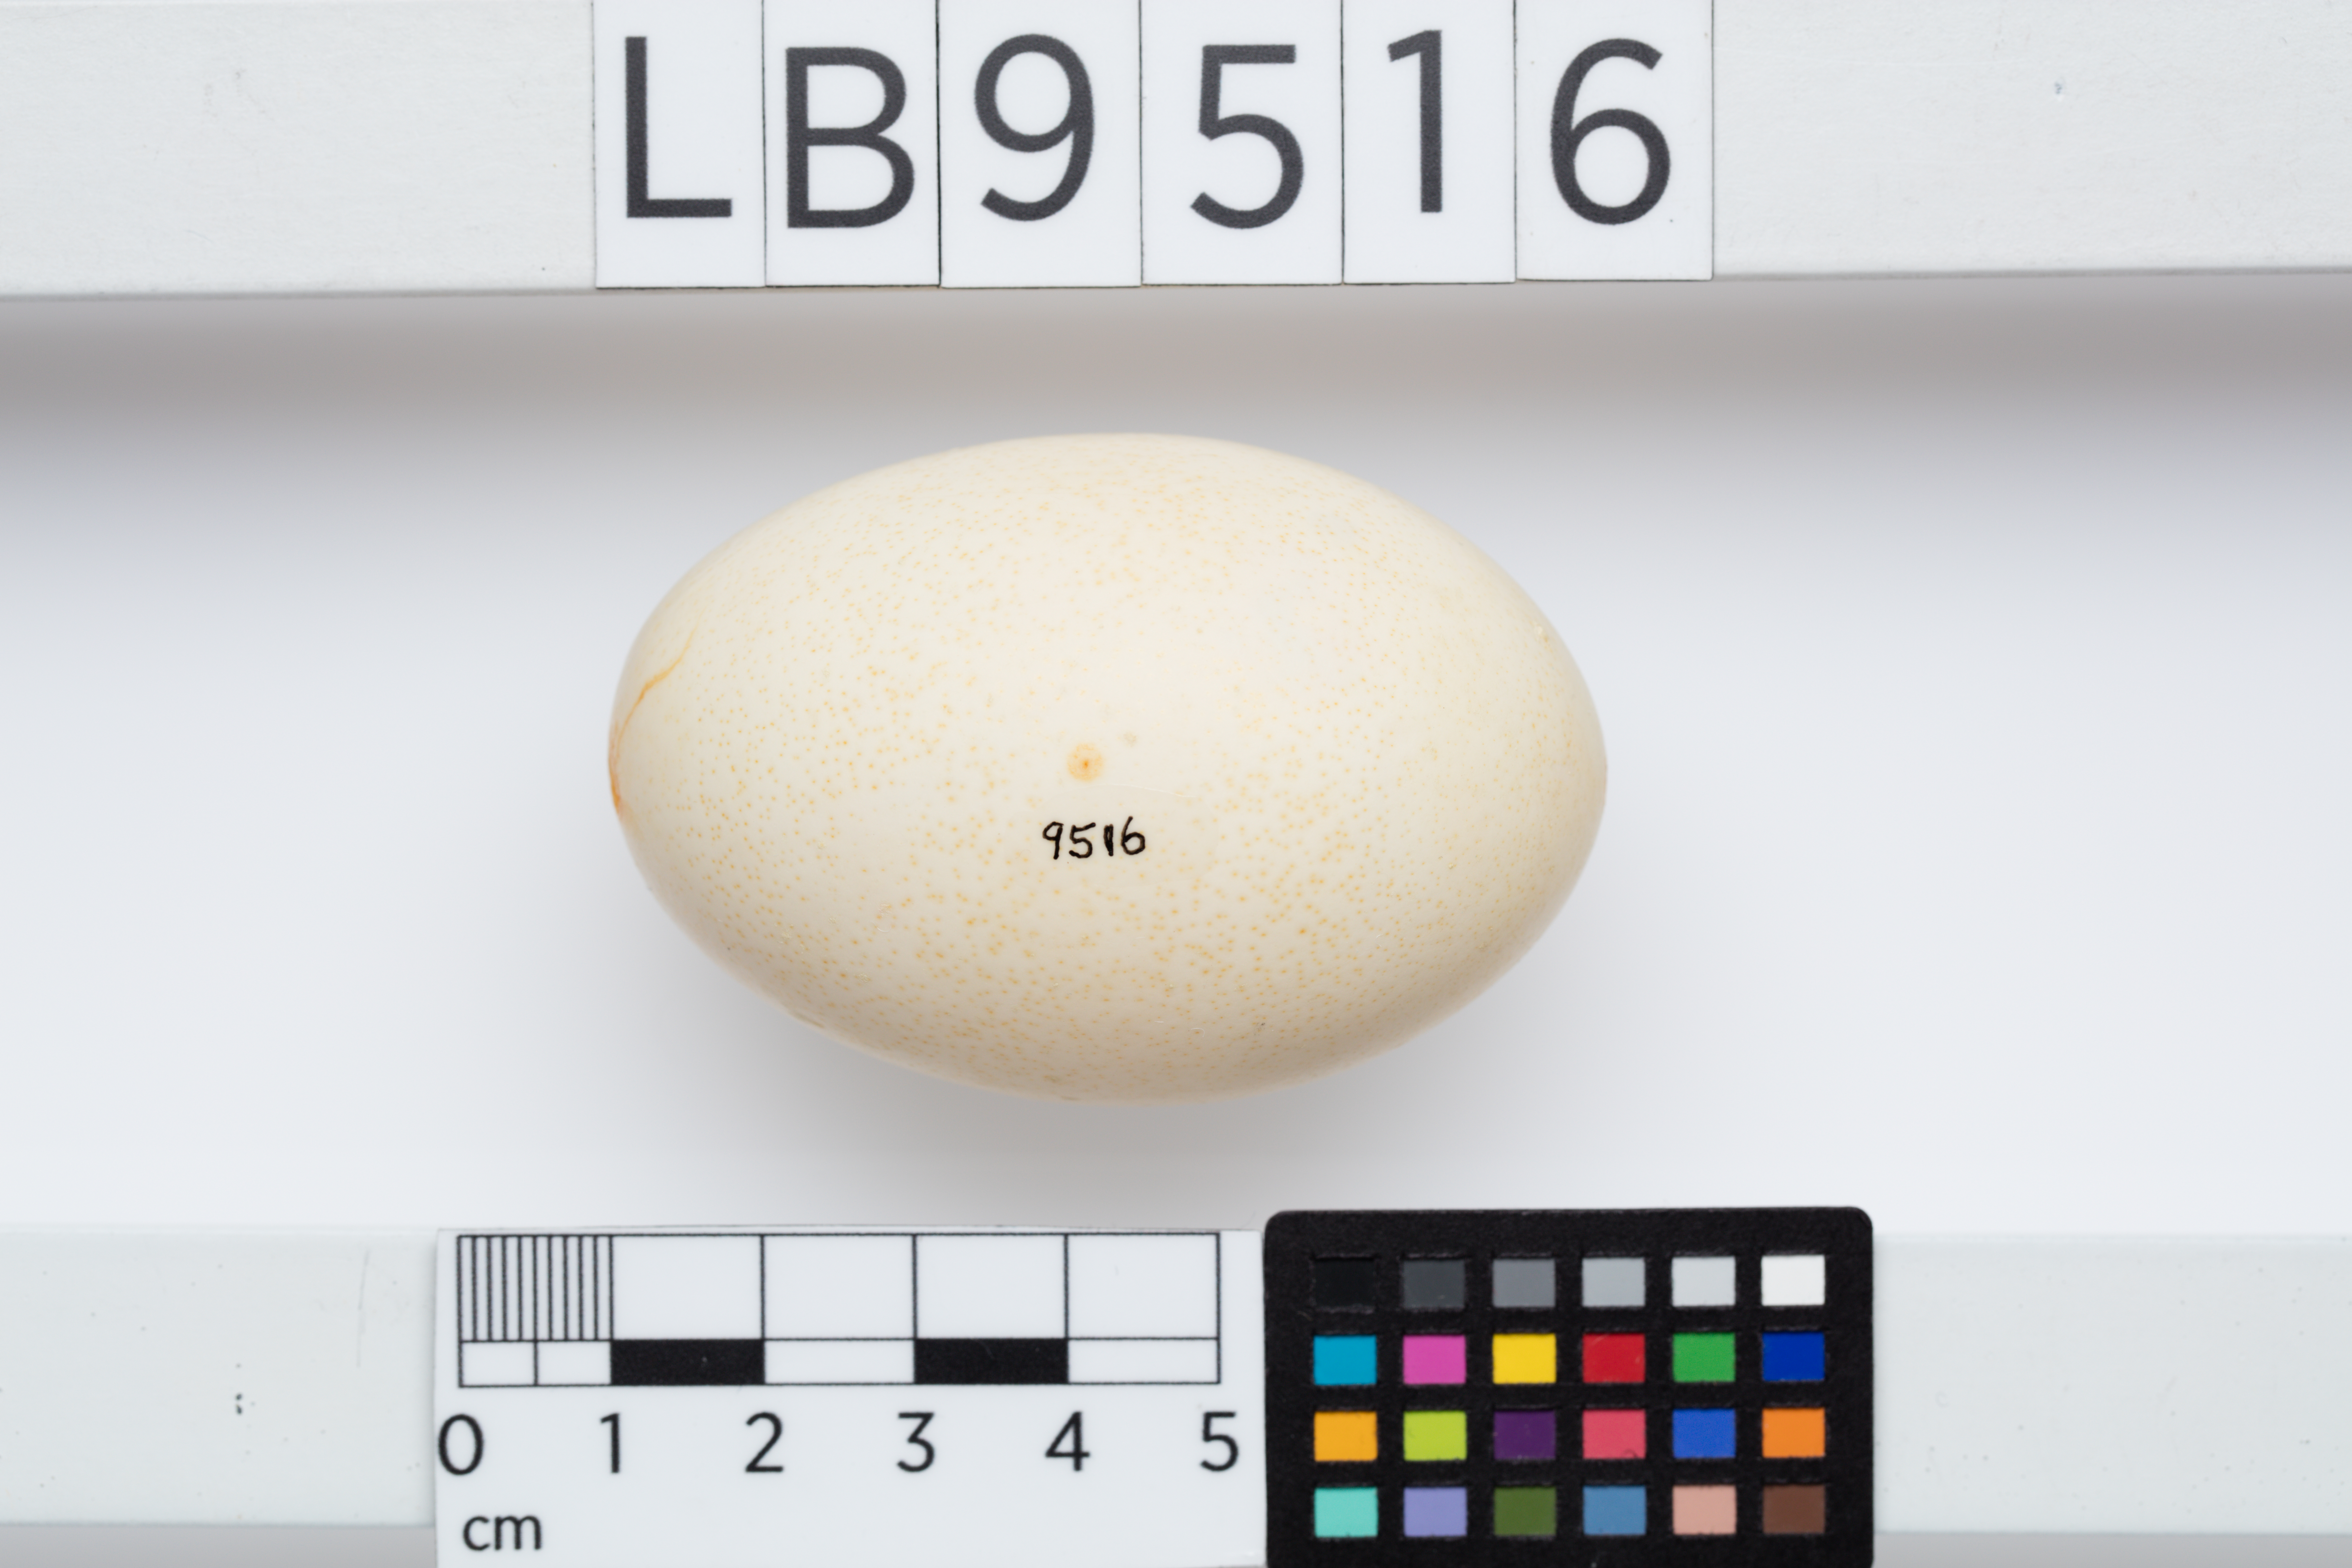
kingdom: Animalia
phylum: Chordata
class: Aves
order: Anseriformes
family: Anatidae
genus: Cairina
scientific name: Cairina moschata
